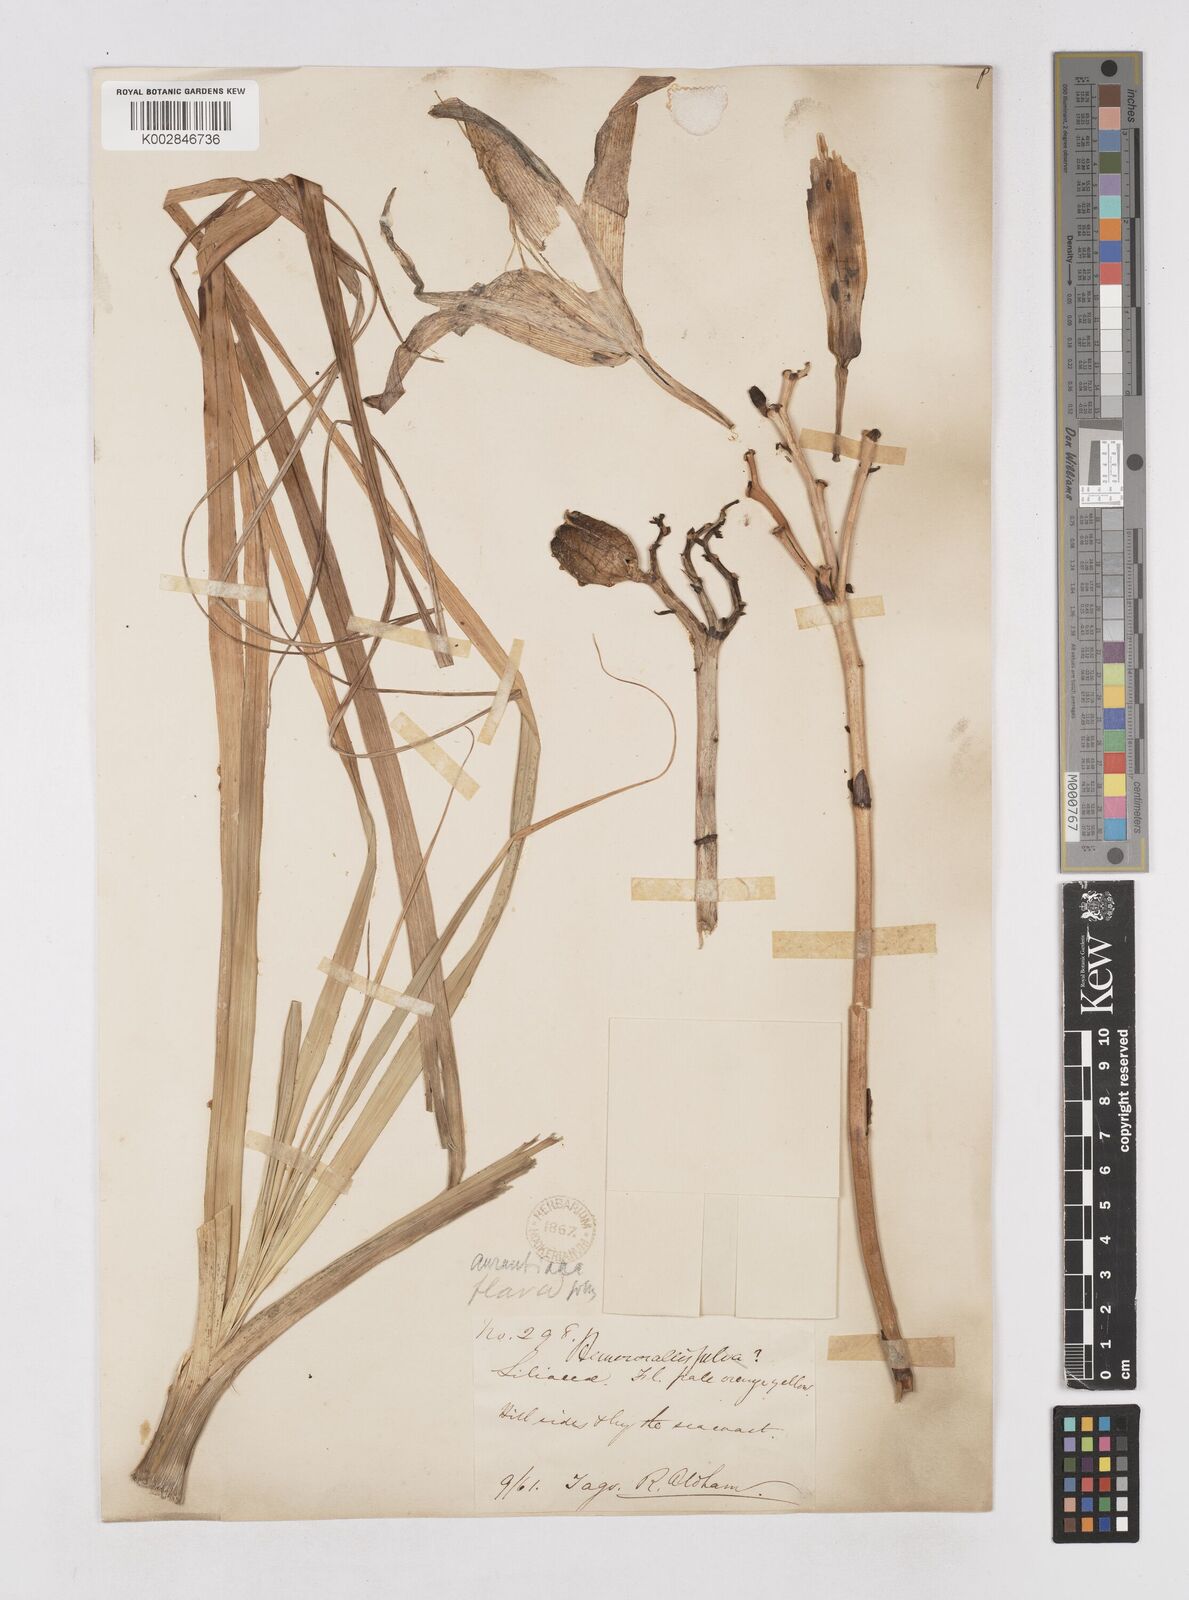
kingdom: Plantae
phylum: Tracheophyta
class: Liliopsida
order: Asparagales
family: Asphodelaceae
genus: Hemerocallis
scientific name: Hemerocallis
